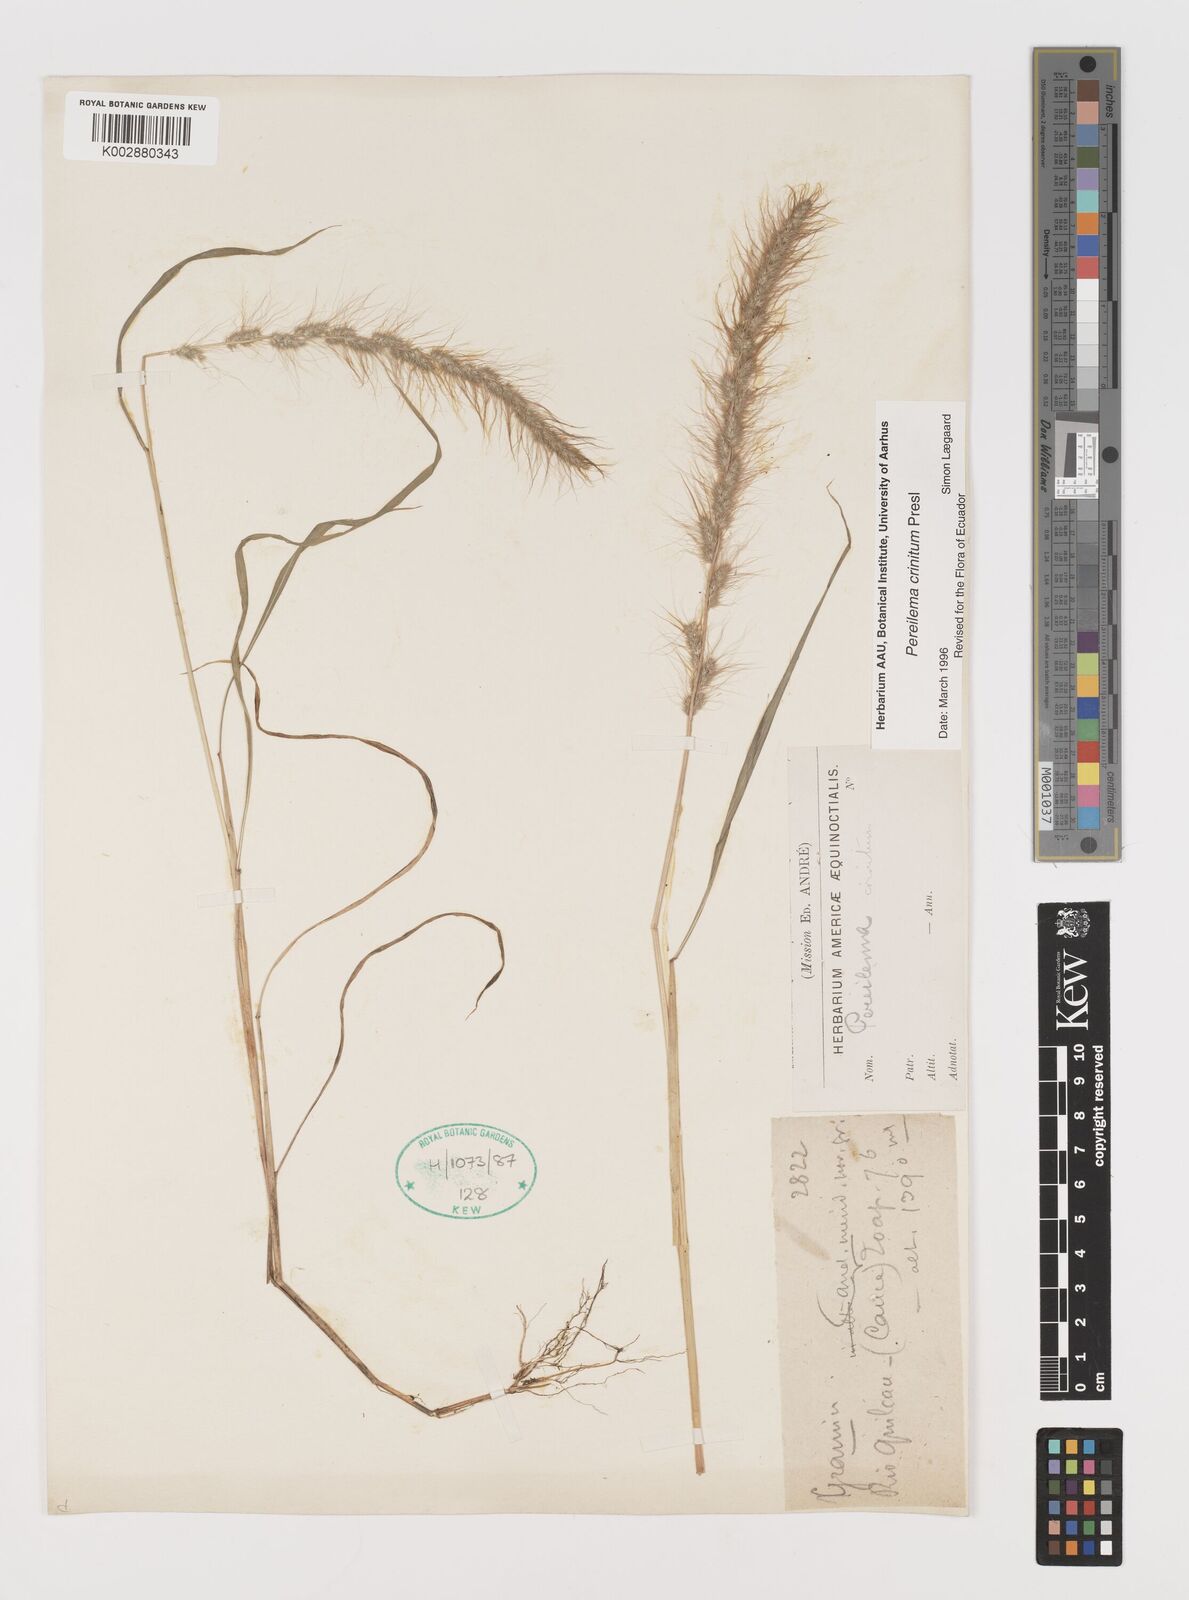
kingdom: Plantae
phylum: Tracheophyta
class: Liliopsida
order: Poales
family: Poaceae
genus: Muhlenbergia
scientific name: Muhlenbergia pereilema
